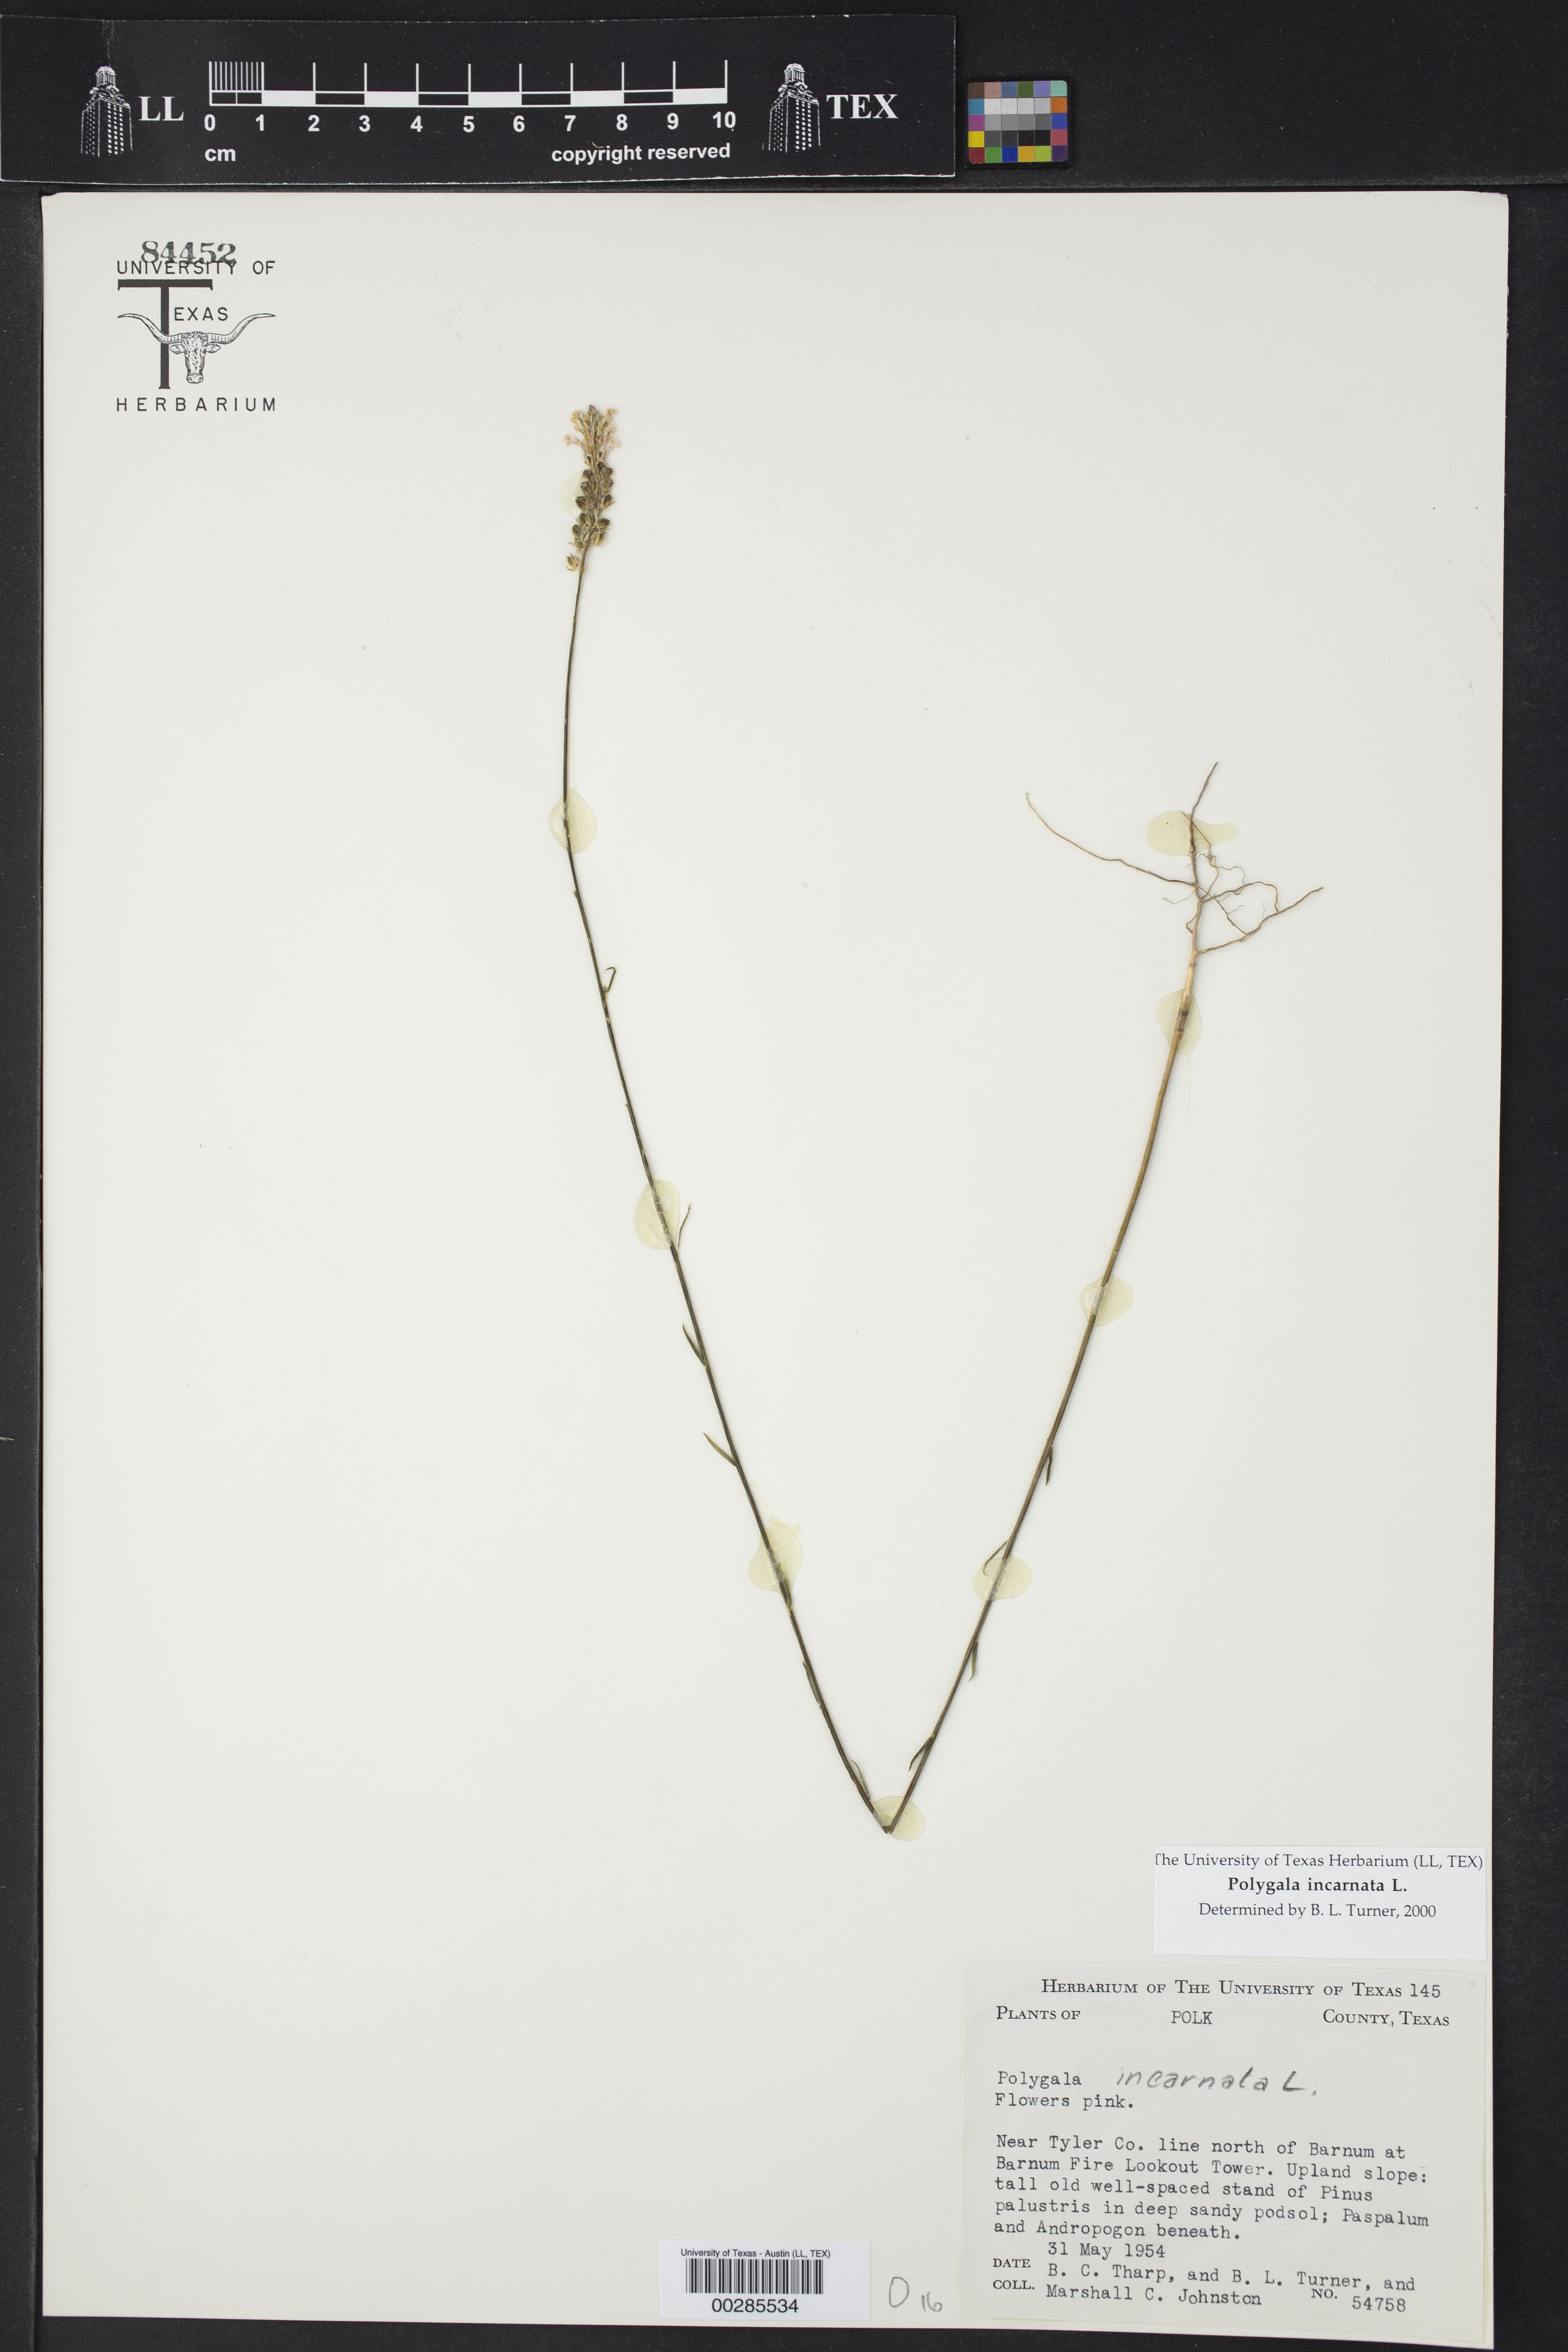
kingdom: Plantae
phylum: Tracheophyta
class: Magnoliopsida
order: Fabales
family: Polygalaceae
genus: Polygala
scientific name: Polygala incarnata
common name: Pink milkwort
